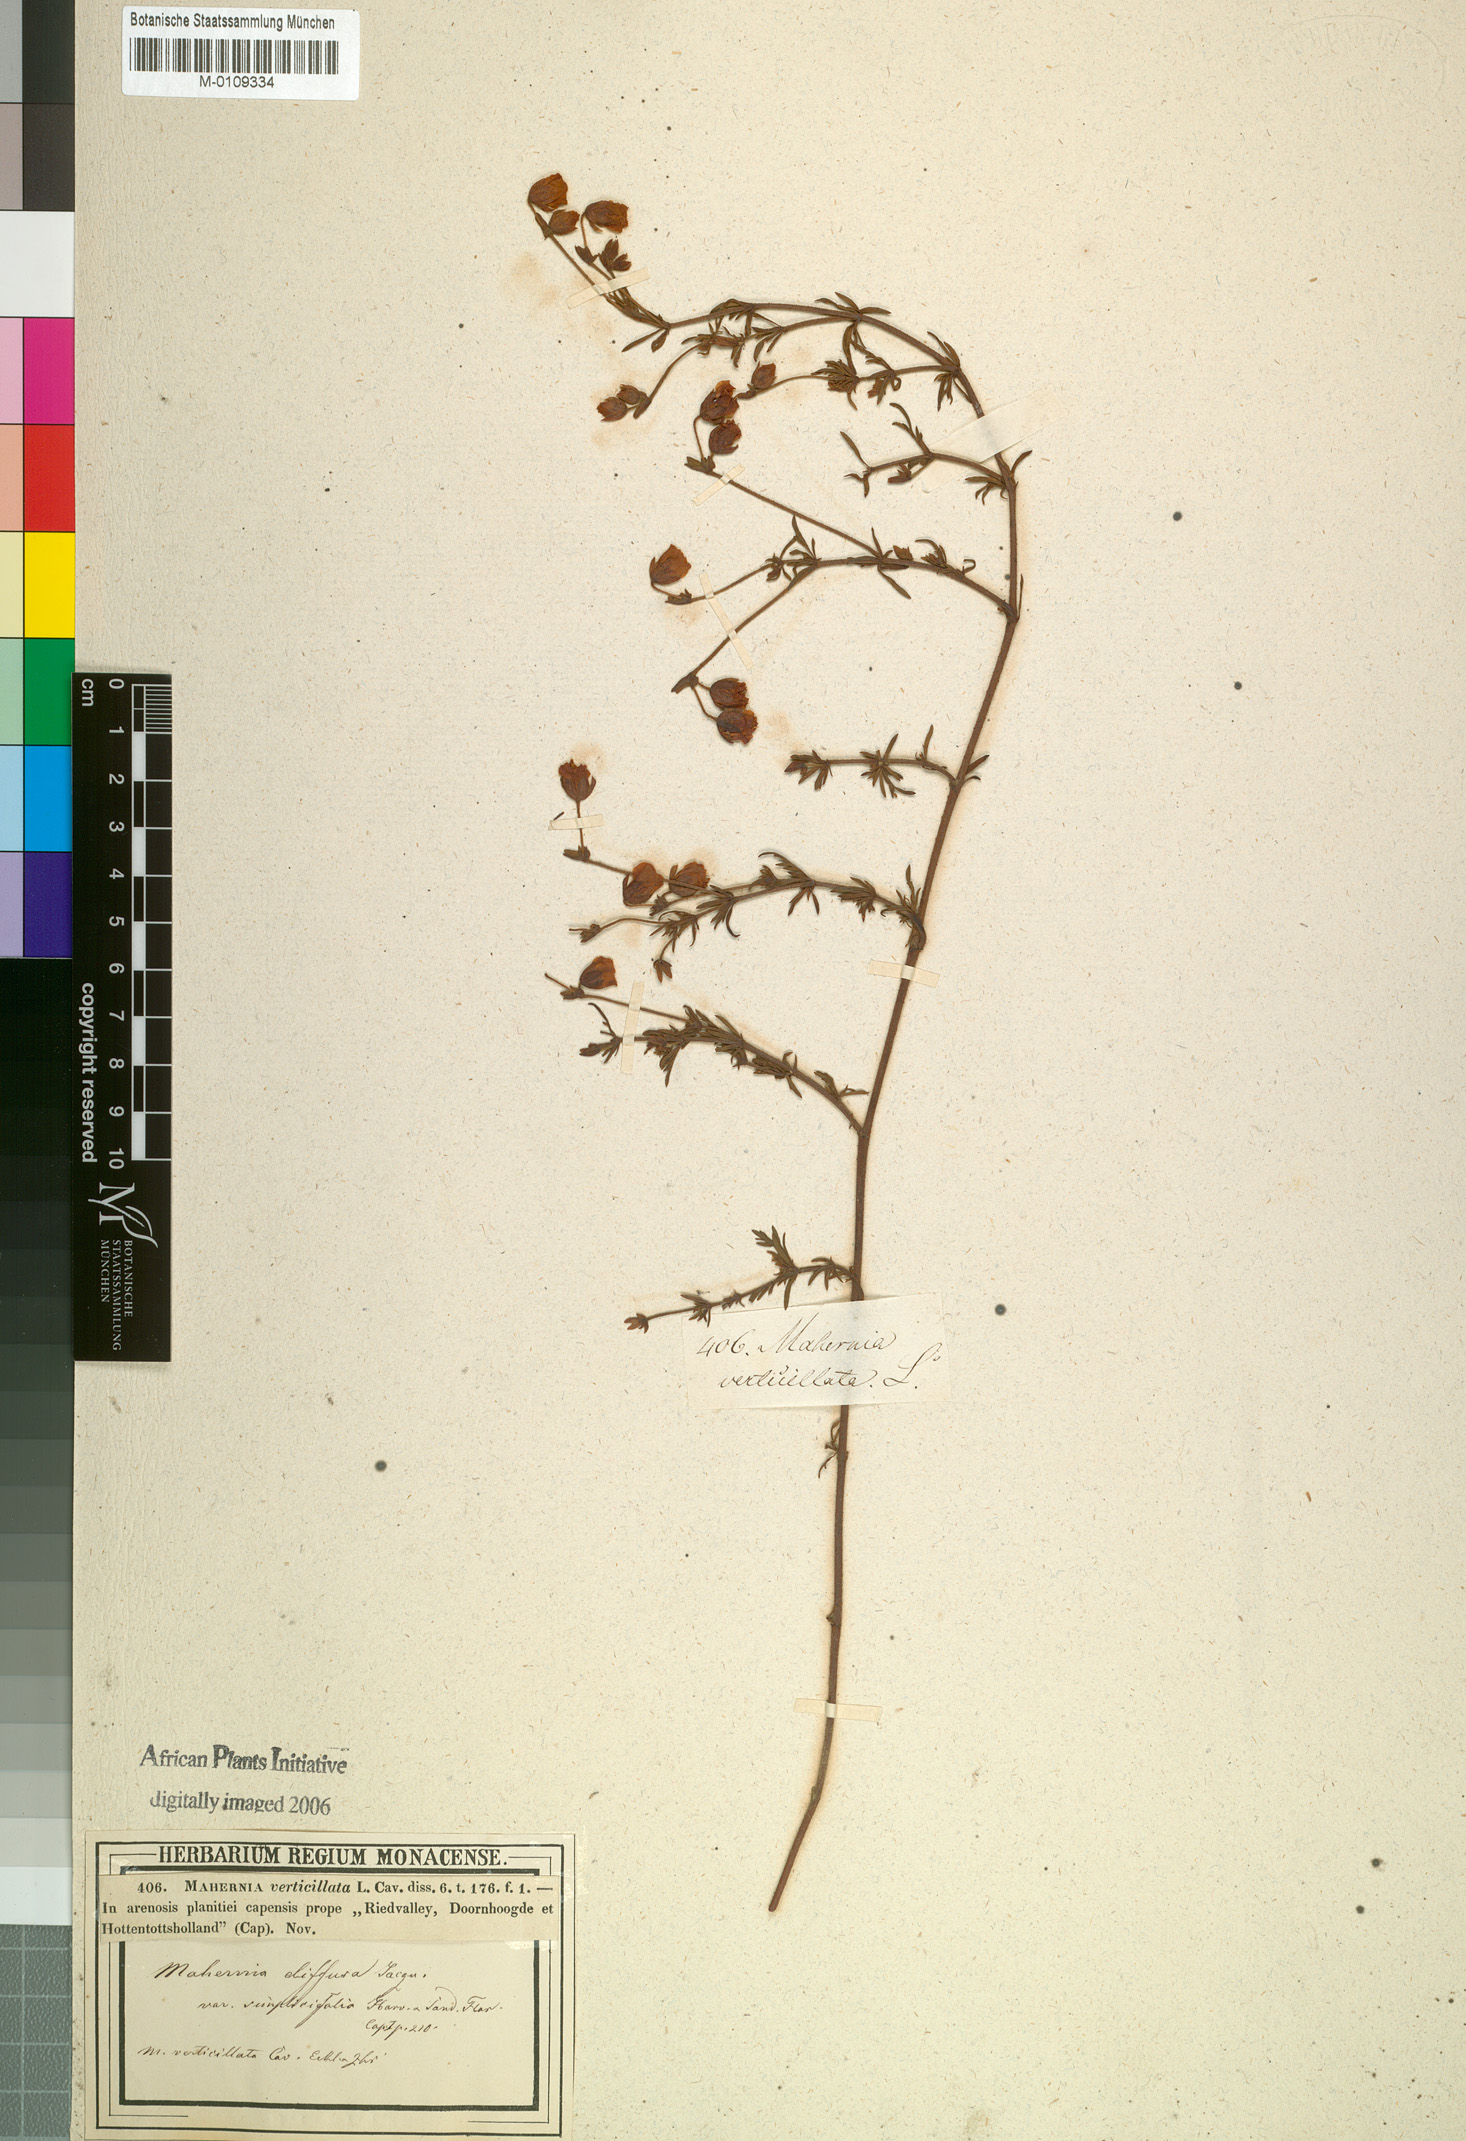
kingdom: Plantae
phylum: Tracheophyta
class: Magnoliopsida
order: Malvales
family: Malvaceae
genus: Hermannia
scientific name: Hermannia diffusa
